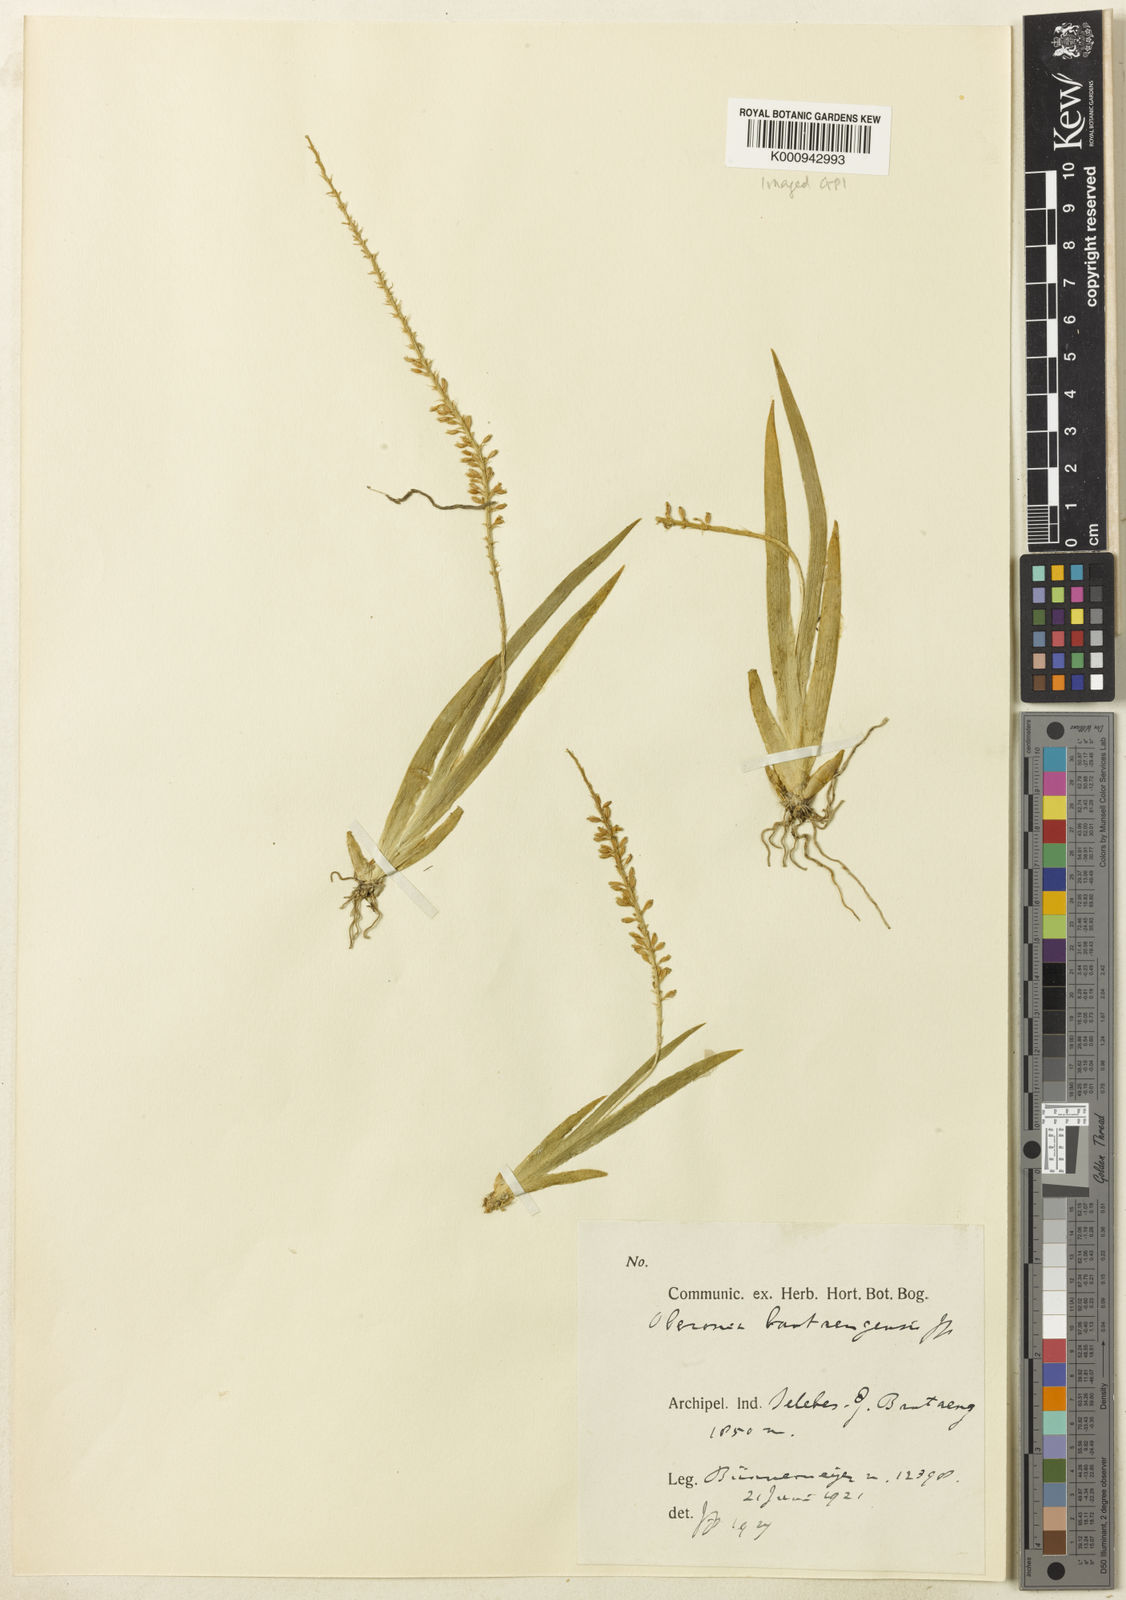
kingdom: Plantae
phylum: Tracheophyta
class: Liliopsida
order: Asparagales
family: Orchidaceae
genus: Oberonia
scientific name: Oberonia bantaengensis
